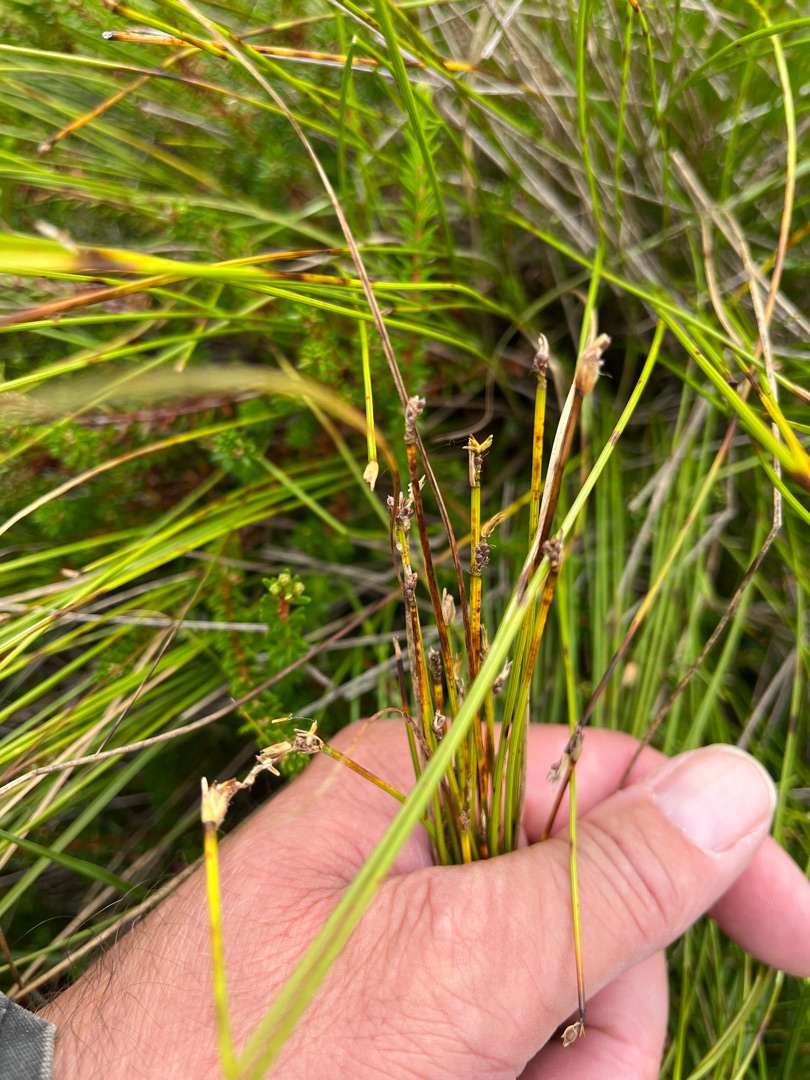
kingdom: Plantae
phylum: Tracheophyta
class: Liliopsida
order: Poales
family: Cyperaceae
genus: Trichophorum
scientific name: Trichophorum cespitosum
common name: Tuekogleaks
